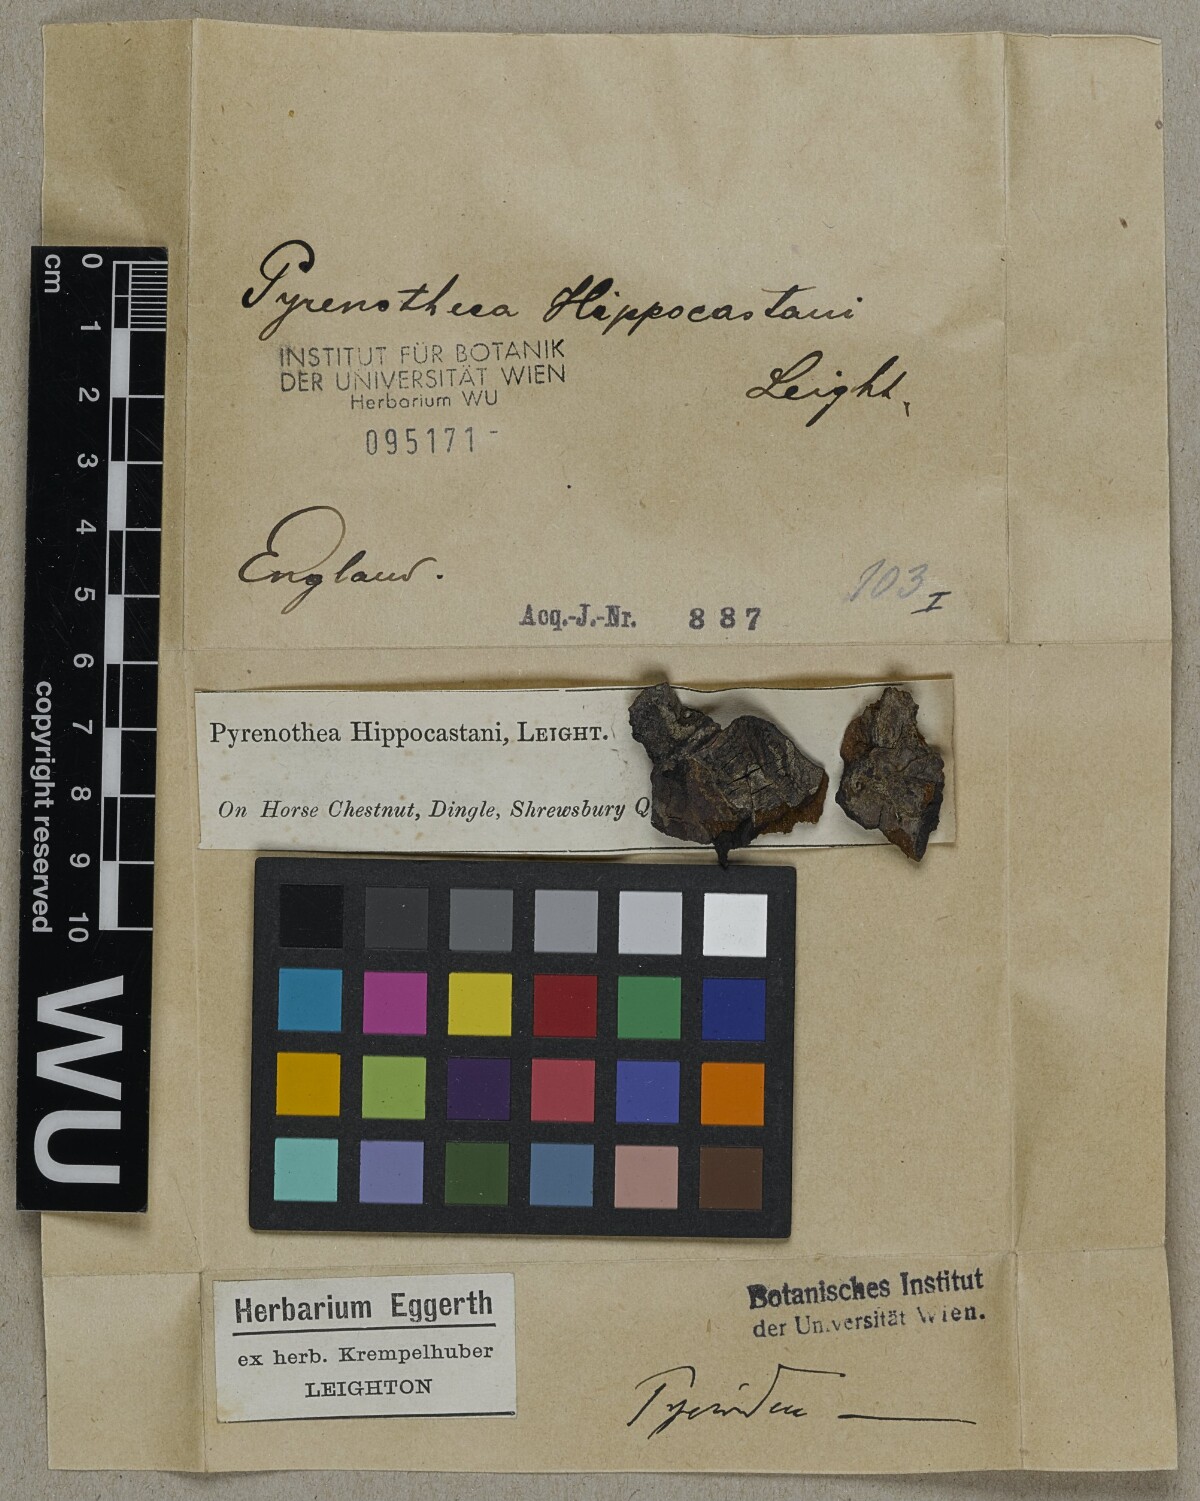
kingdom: Fungi
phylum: Ascomycota
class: Arthoniomycetes
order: Arthoniales
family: Opegraphaceae
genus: Opegrapha
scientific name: Opegrapha niveoatra
